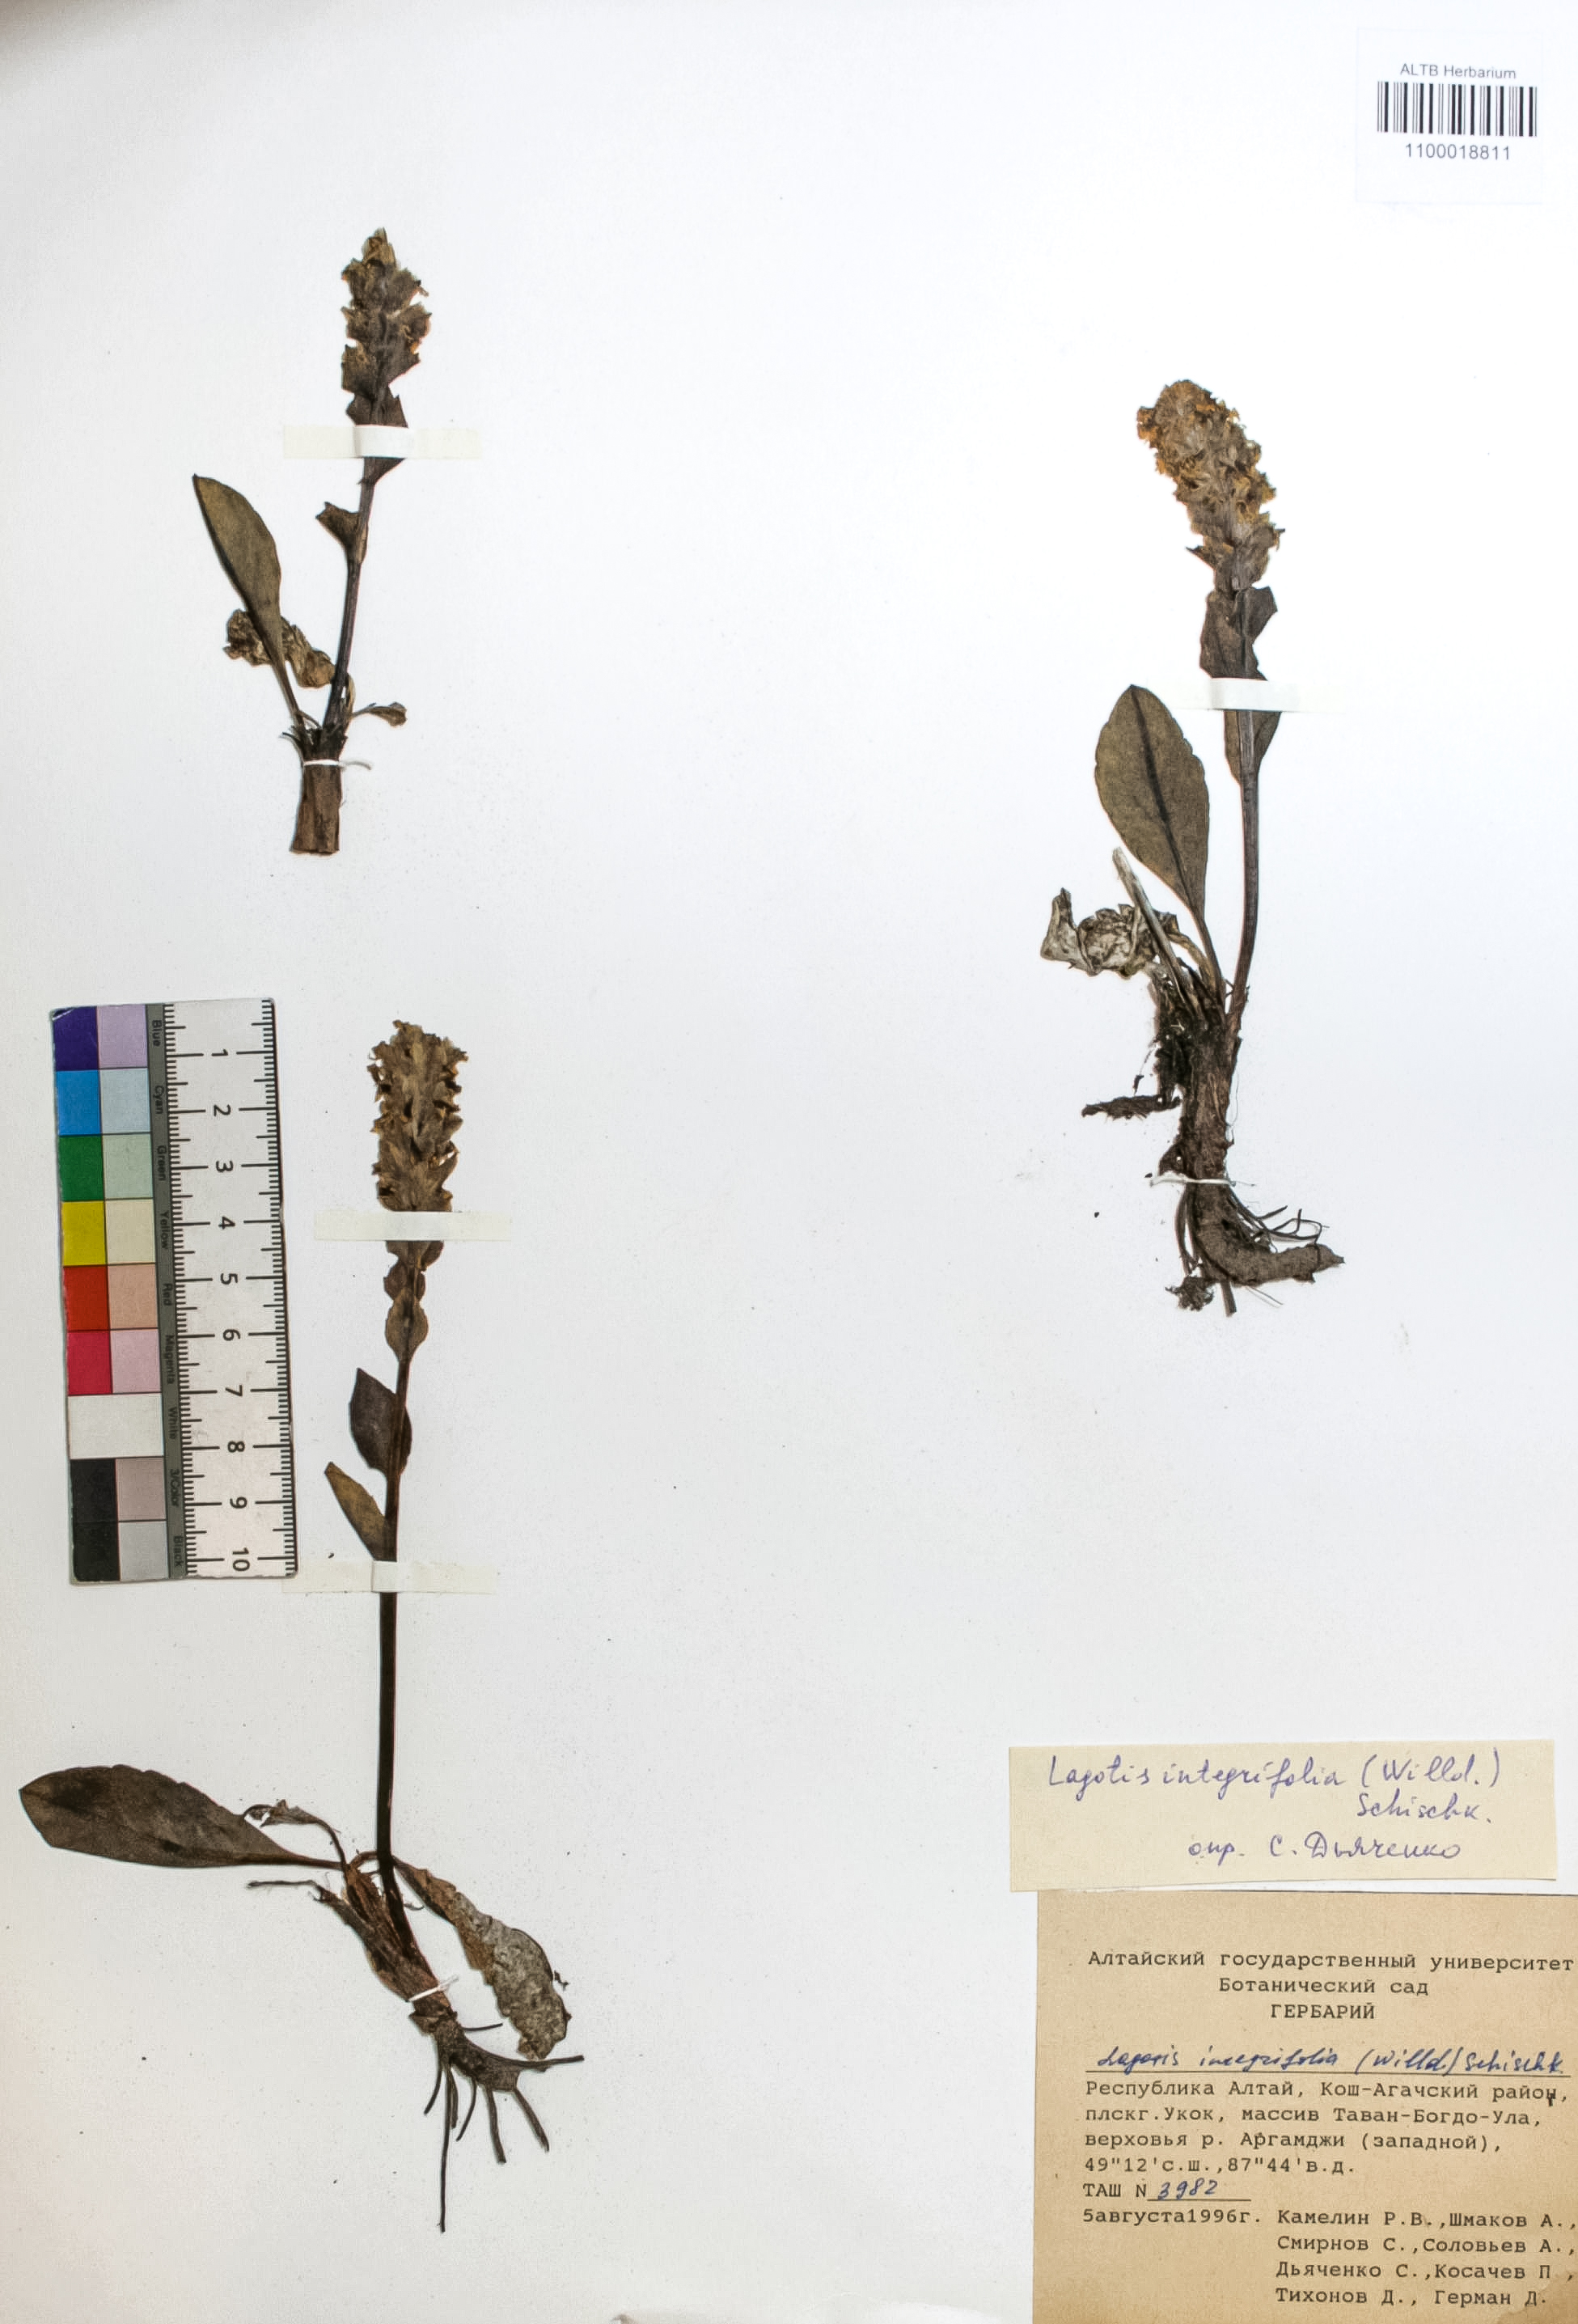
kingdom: Plantae
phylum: Tracheophyta
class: Magnoliopsida
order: Lamiales
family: Plantaginaceae
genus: Lagotis
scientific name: Lagotis integrifolia
